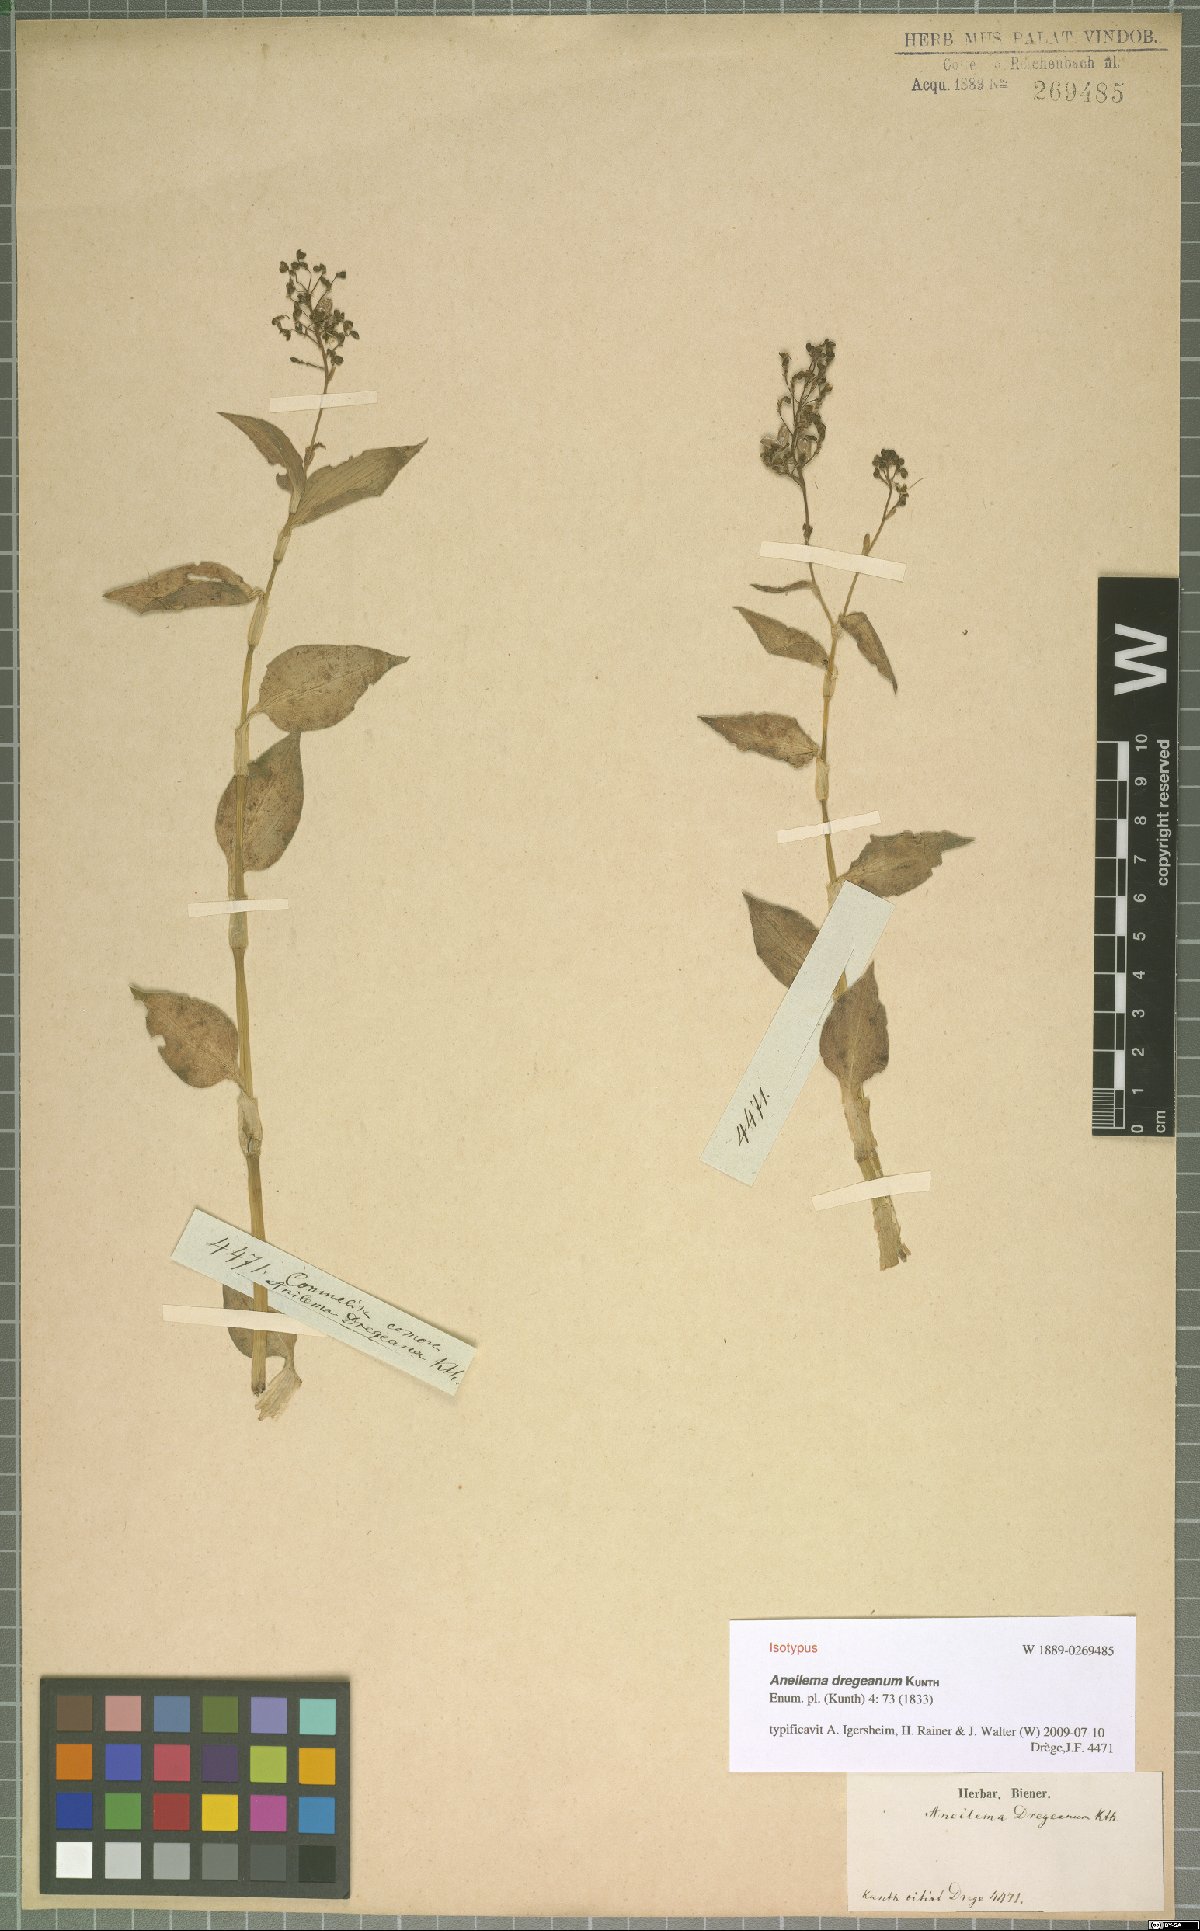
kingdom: Plantae
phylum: Tracheophyta
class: Liliopsida
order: Commelinales
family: Commelinaceae
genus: Aneilema
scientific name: Aneilema dregeanum
